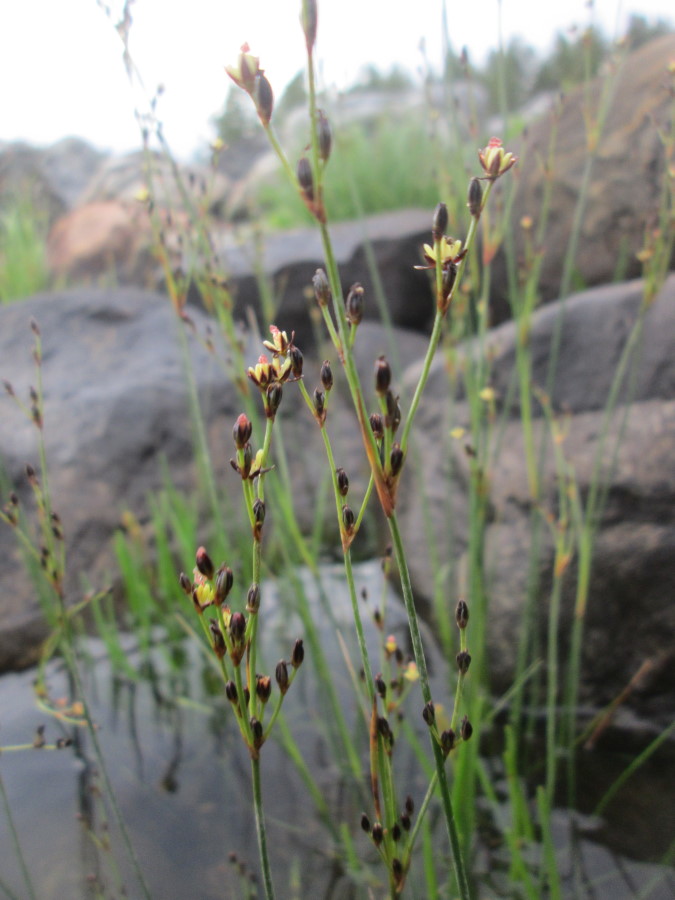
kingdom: Plantae
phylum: Tracheophyta
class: Liliopsida
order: Poales
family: Juncaceae
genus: Juncus
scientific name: Juncus
